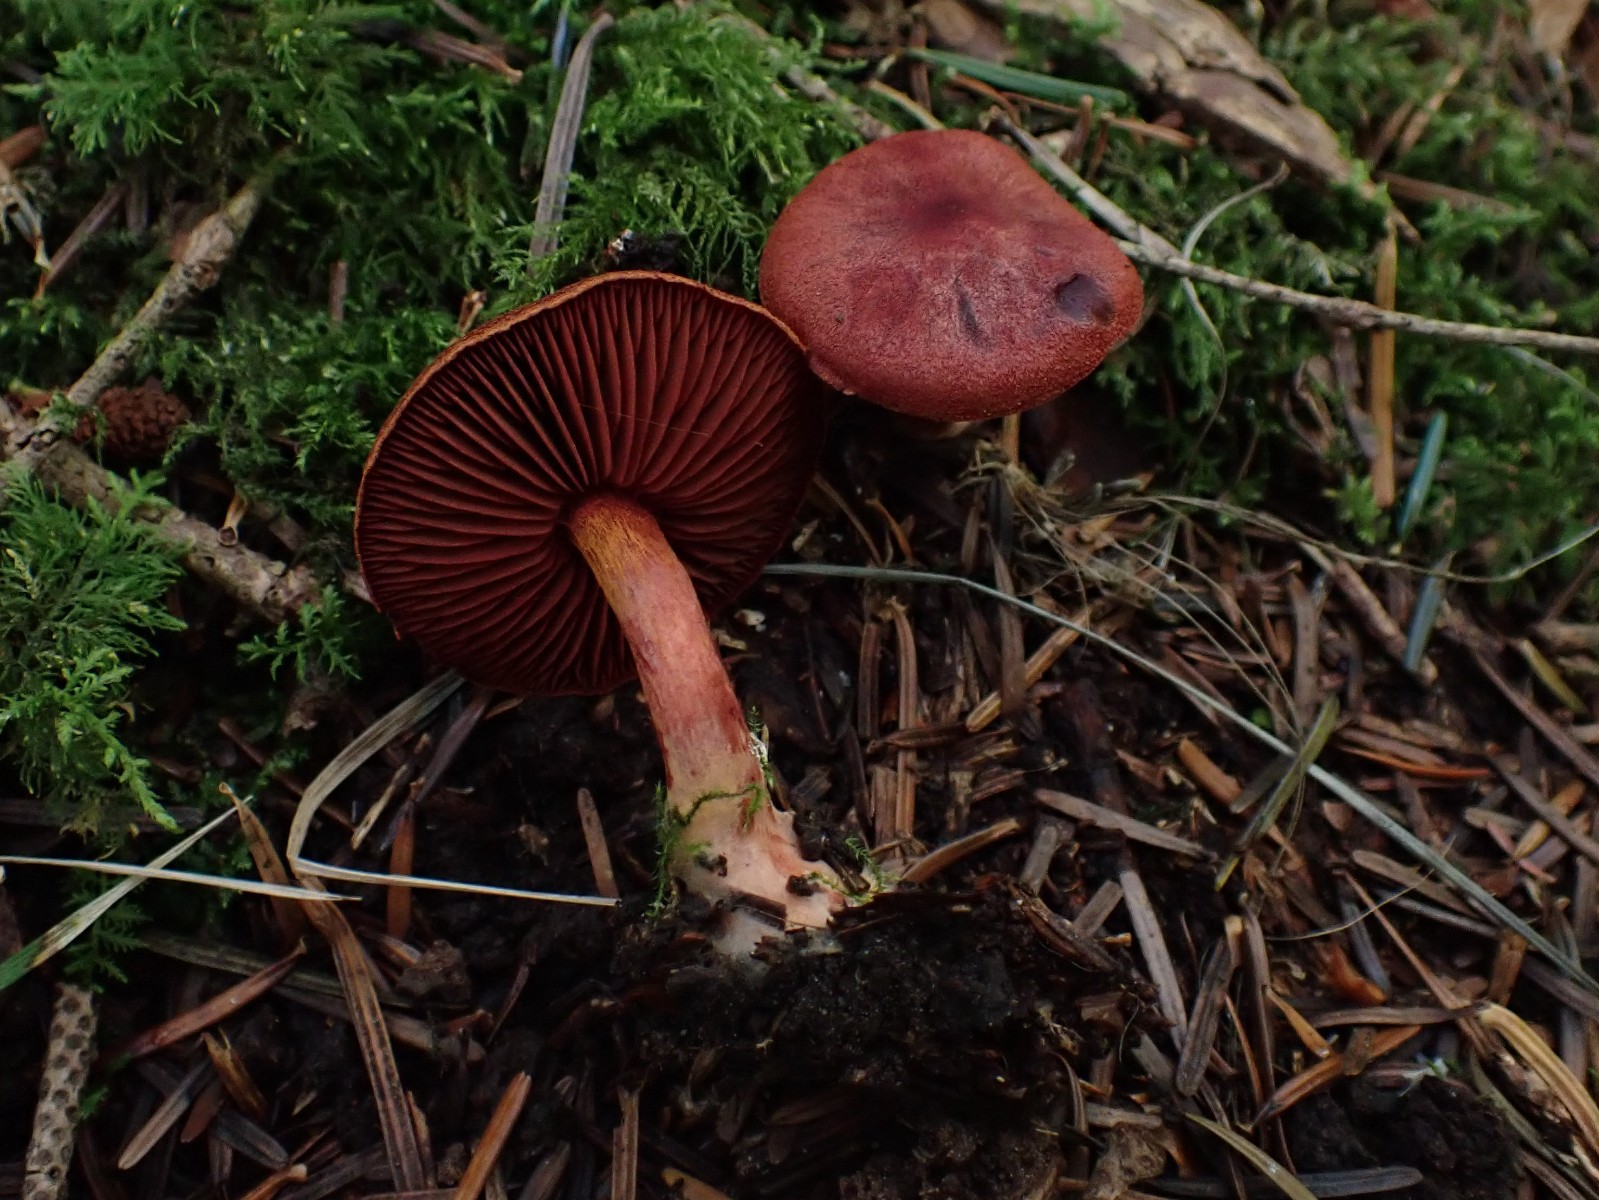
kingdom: Fungi
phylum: Basidiomycota
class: Agaricomycetes
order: Agaricales
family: Cortinariaceae
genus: Cortinarius
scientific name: Cortinarius sanguineus
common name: blodrød slørhat
